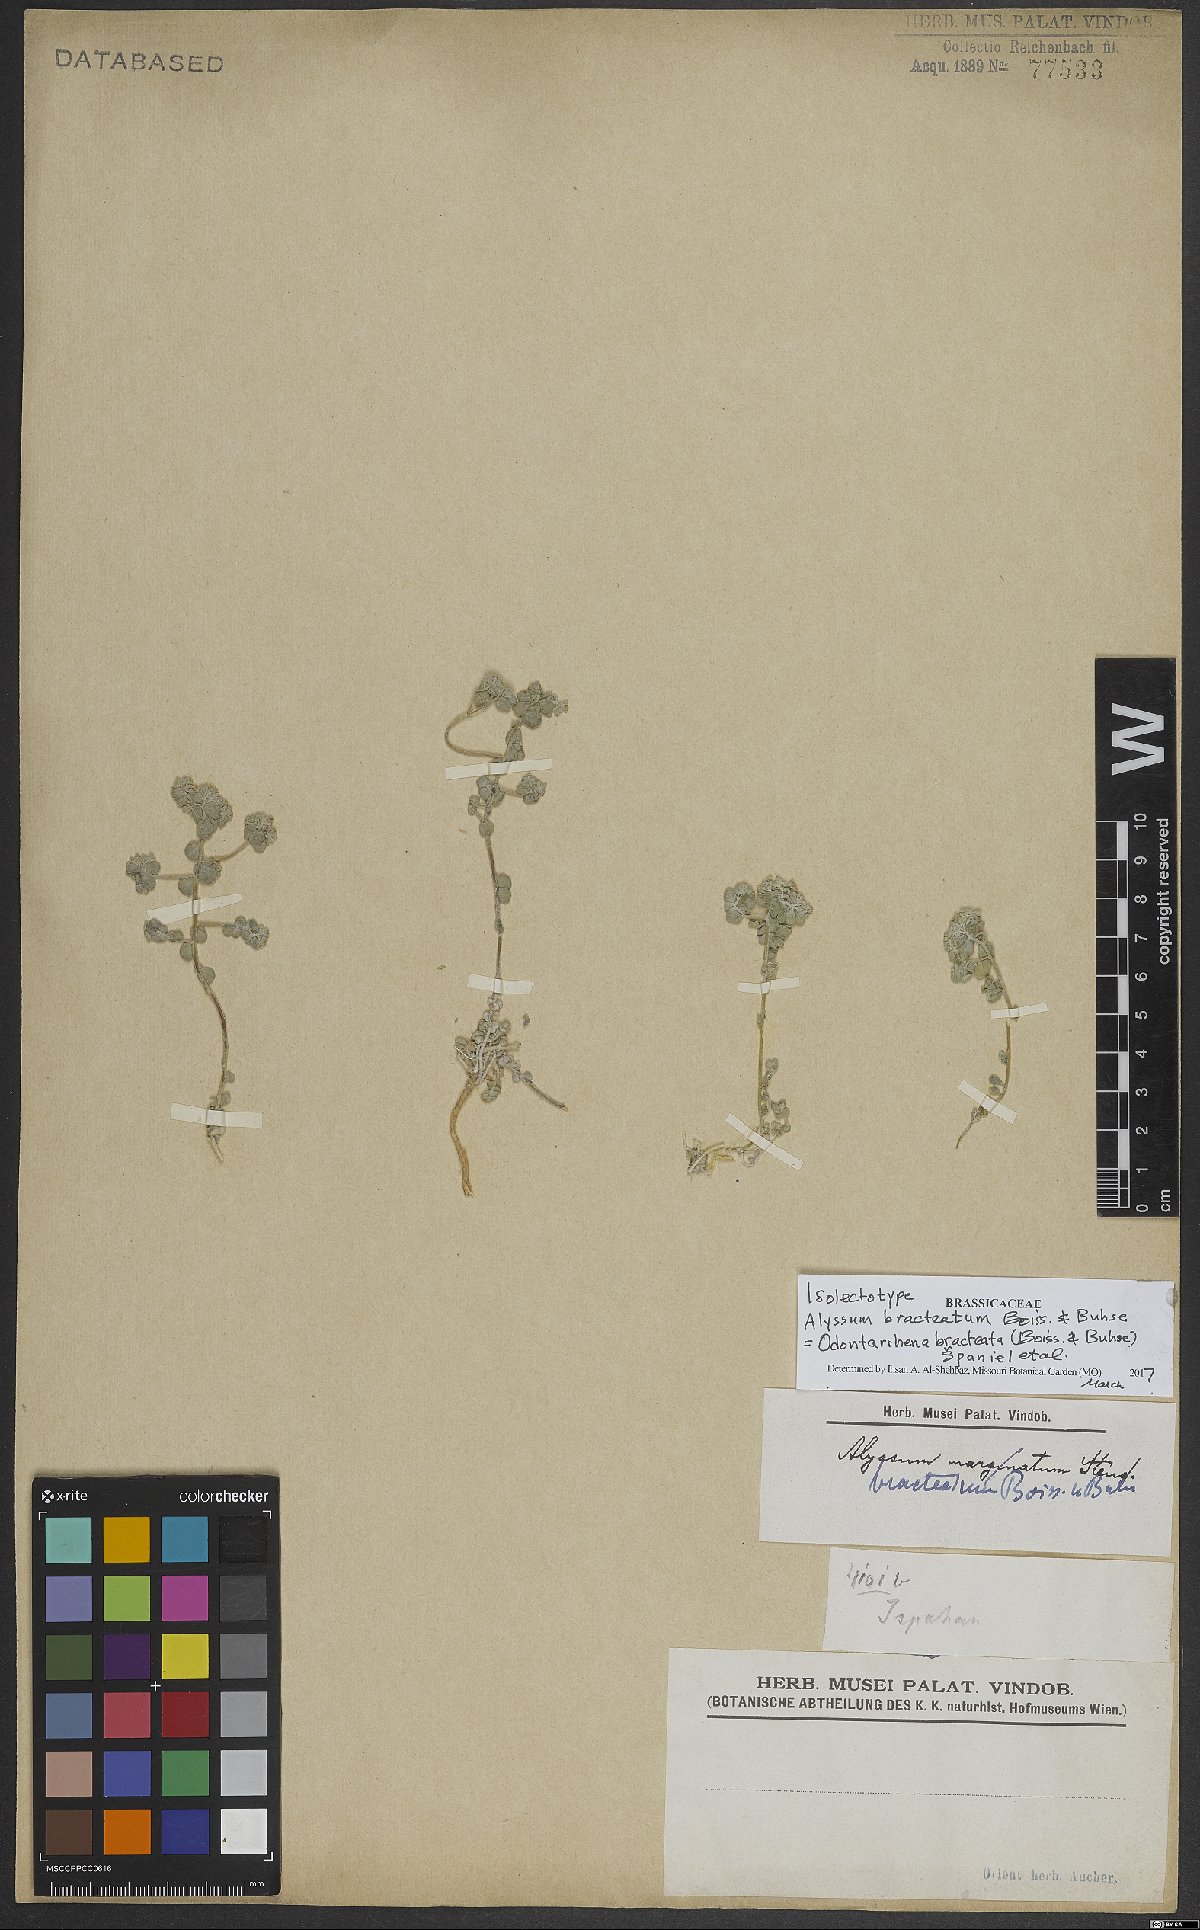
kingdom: Plantae
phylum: Tracheophyta
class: Magnoliopsida
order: Brassicales
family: Brassicaceae
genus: Odontarrhena
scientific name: Odontarrhena bracteata
